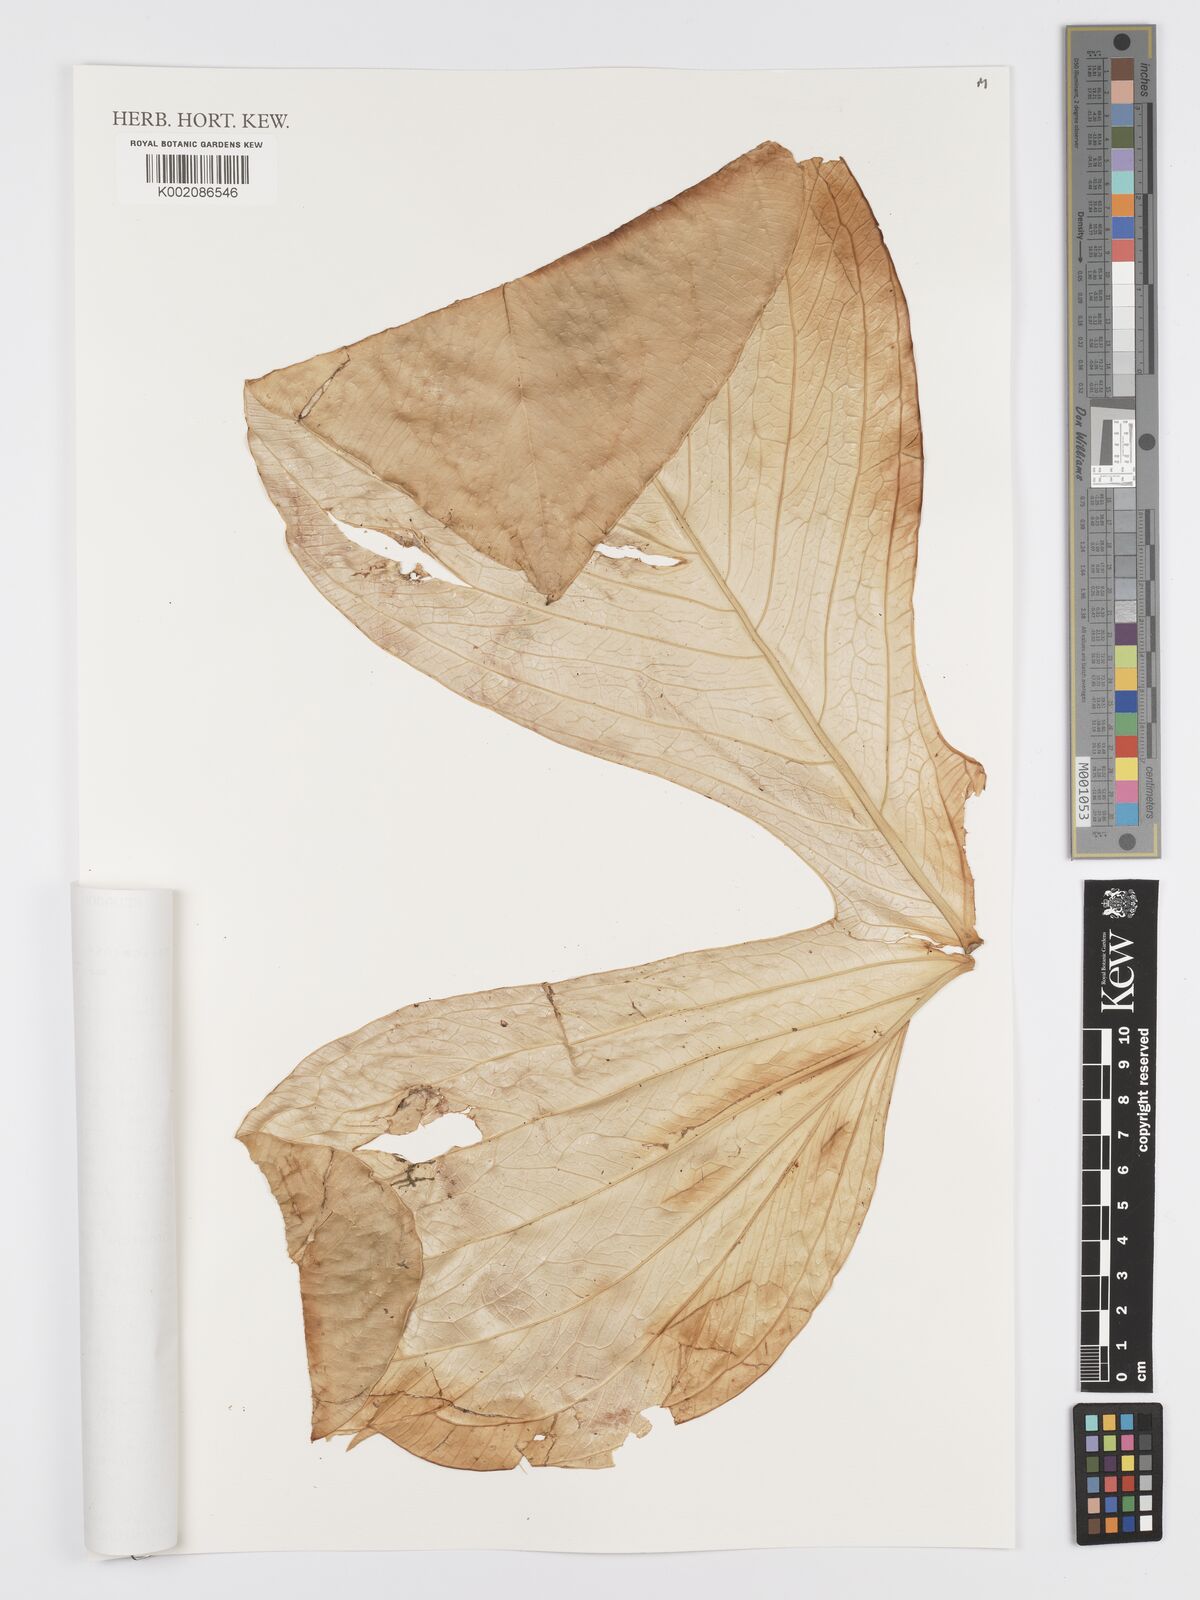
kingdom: Plantae
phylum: Tracheophyta
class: Liliopsida
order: Alismatales
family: Araceae
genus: Anthurium
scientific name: Anthurium moronense
